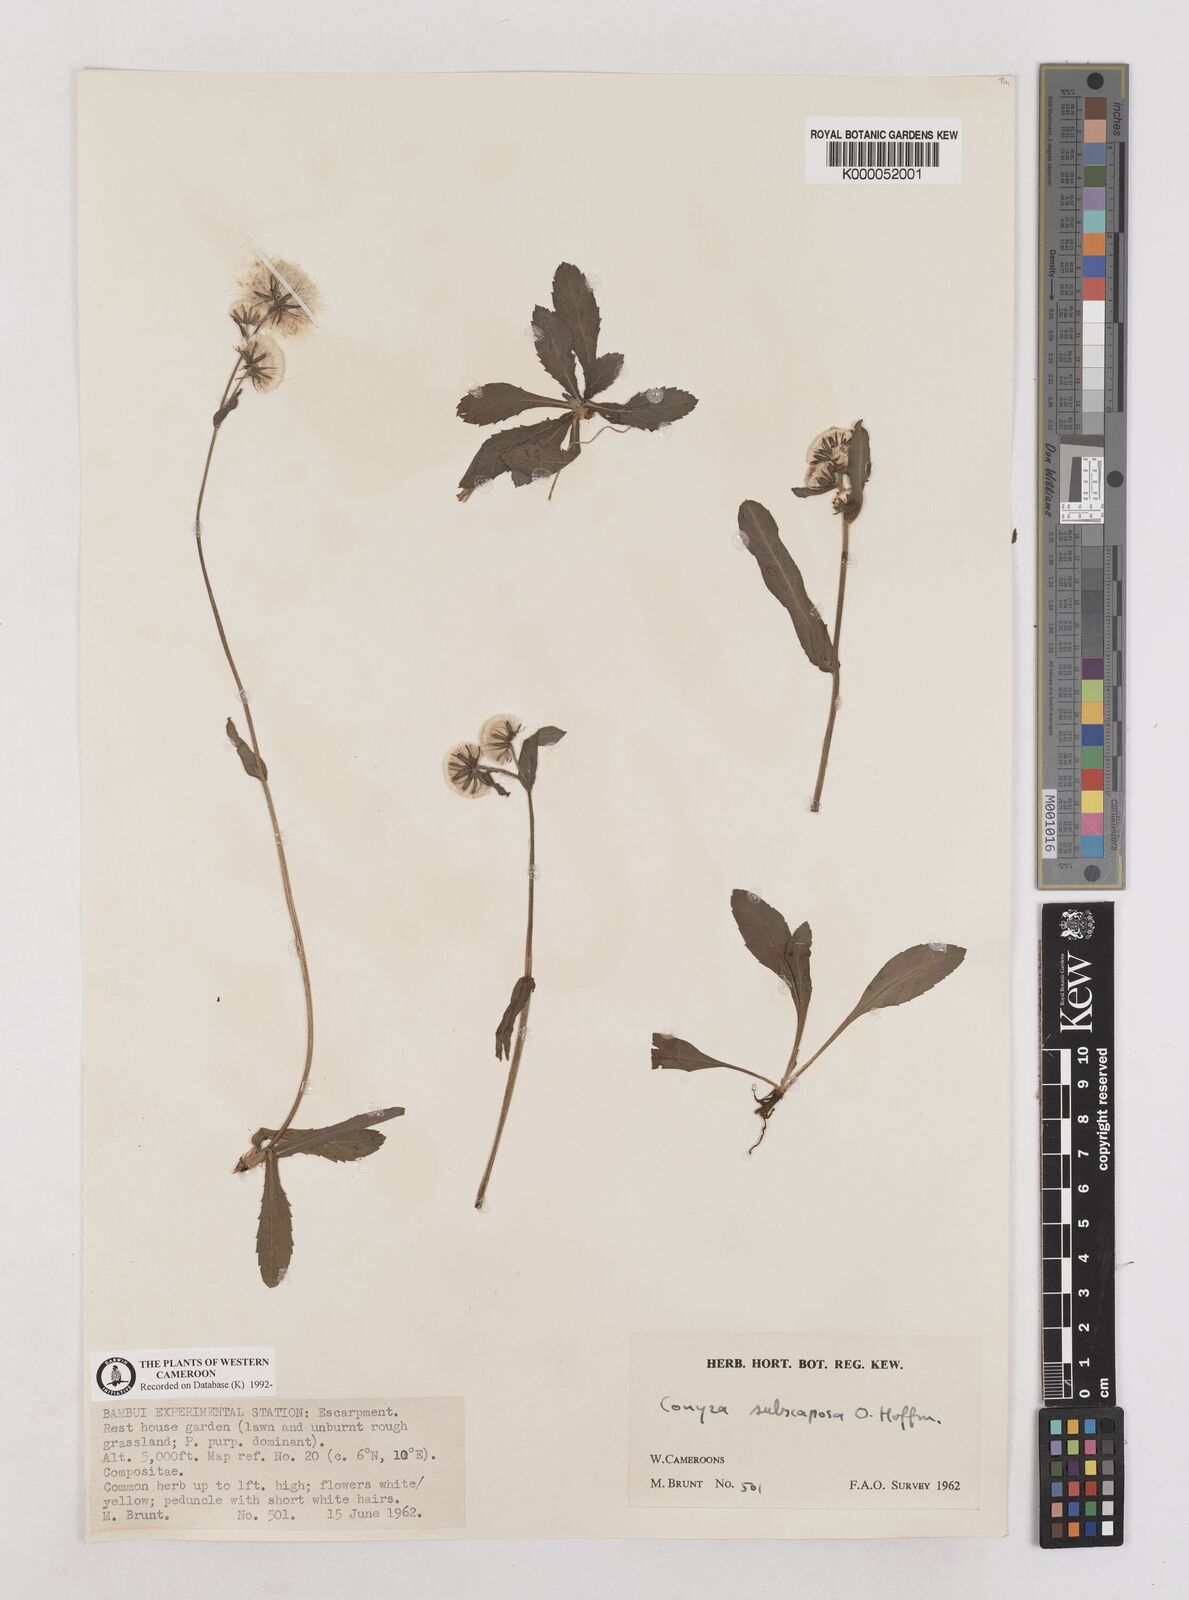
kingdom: Plantae
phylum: Tracheophyta
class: Magnoliopsida
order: Asterales
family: Asteraceae
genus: Eschenbachia
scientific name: Eschenbachia subscaposa
